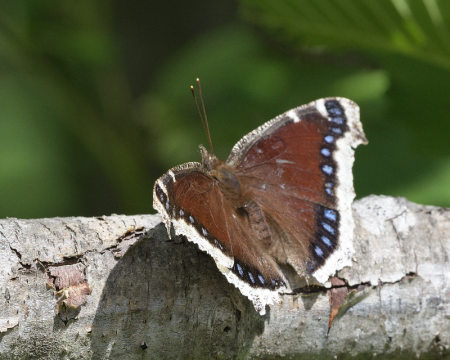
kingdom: Animalia
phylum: Arthropoda
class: Insecta
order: Lepidoptera
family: Nymphalidae
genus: Nymphalis
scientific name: Nymphalis antiopa
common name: Mourning Cloak
